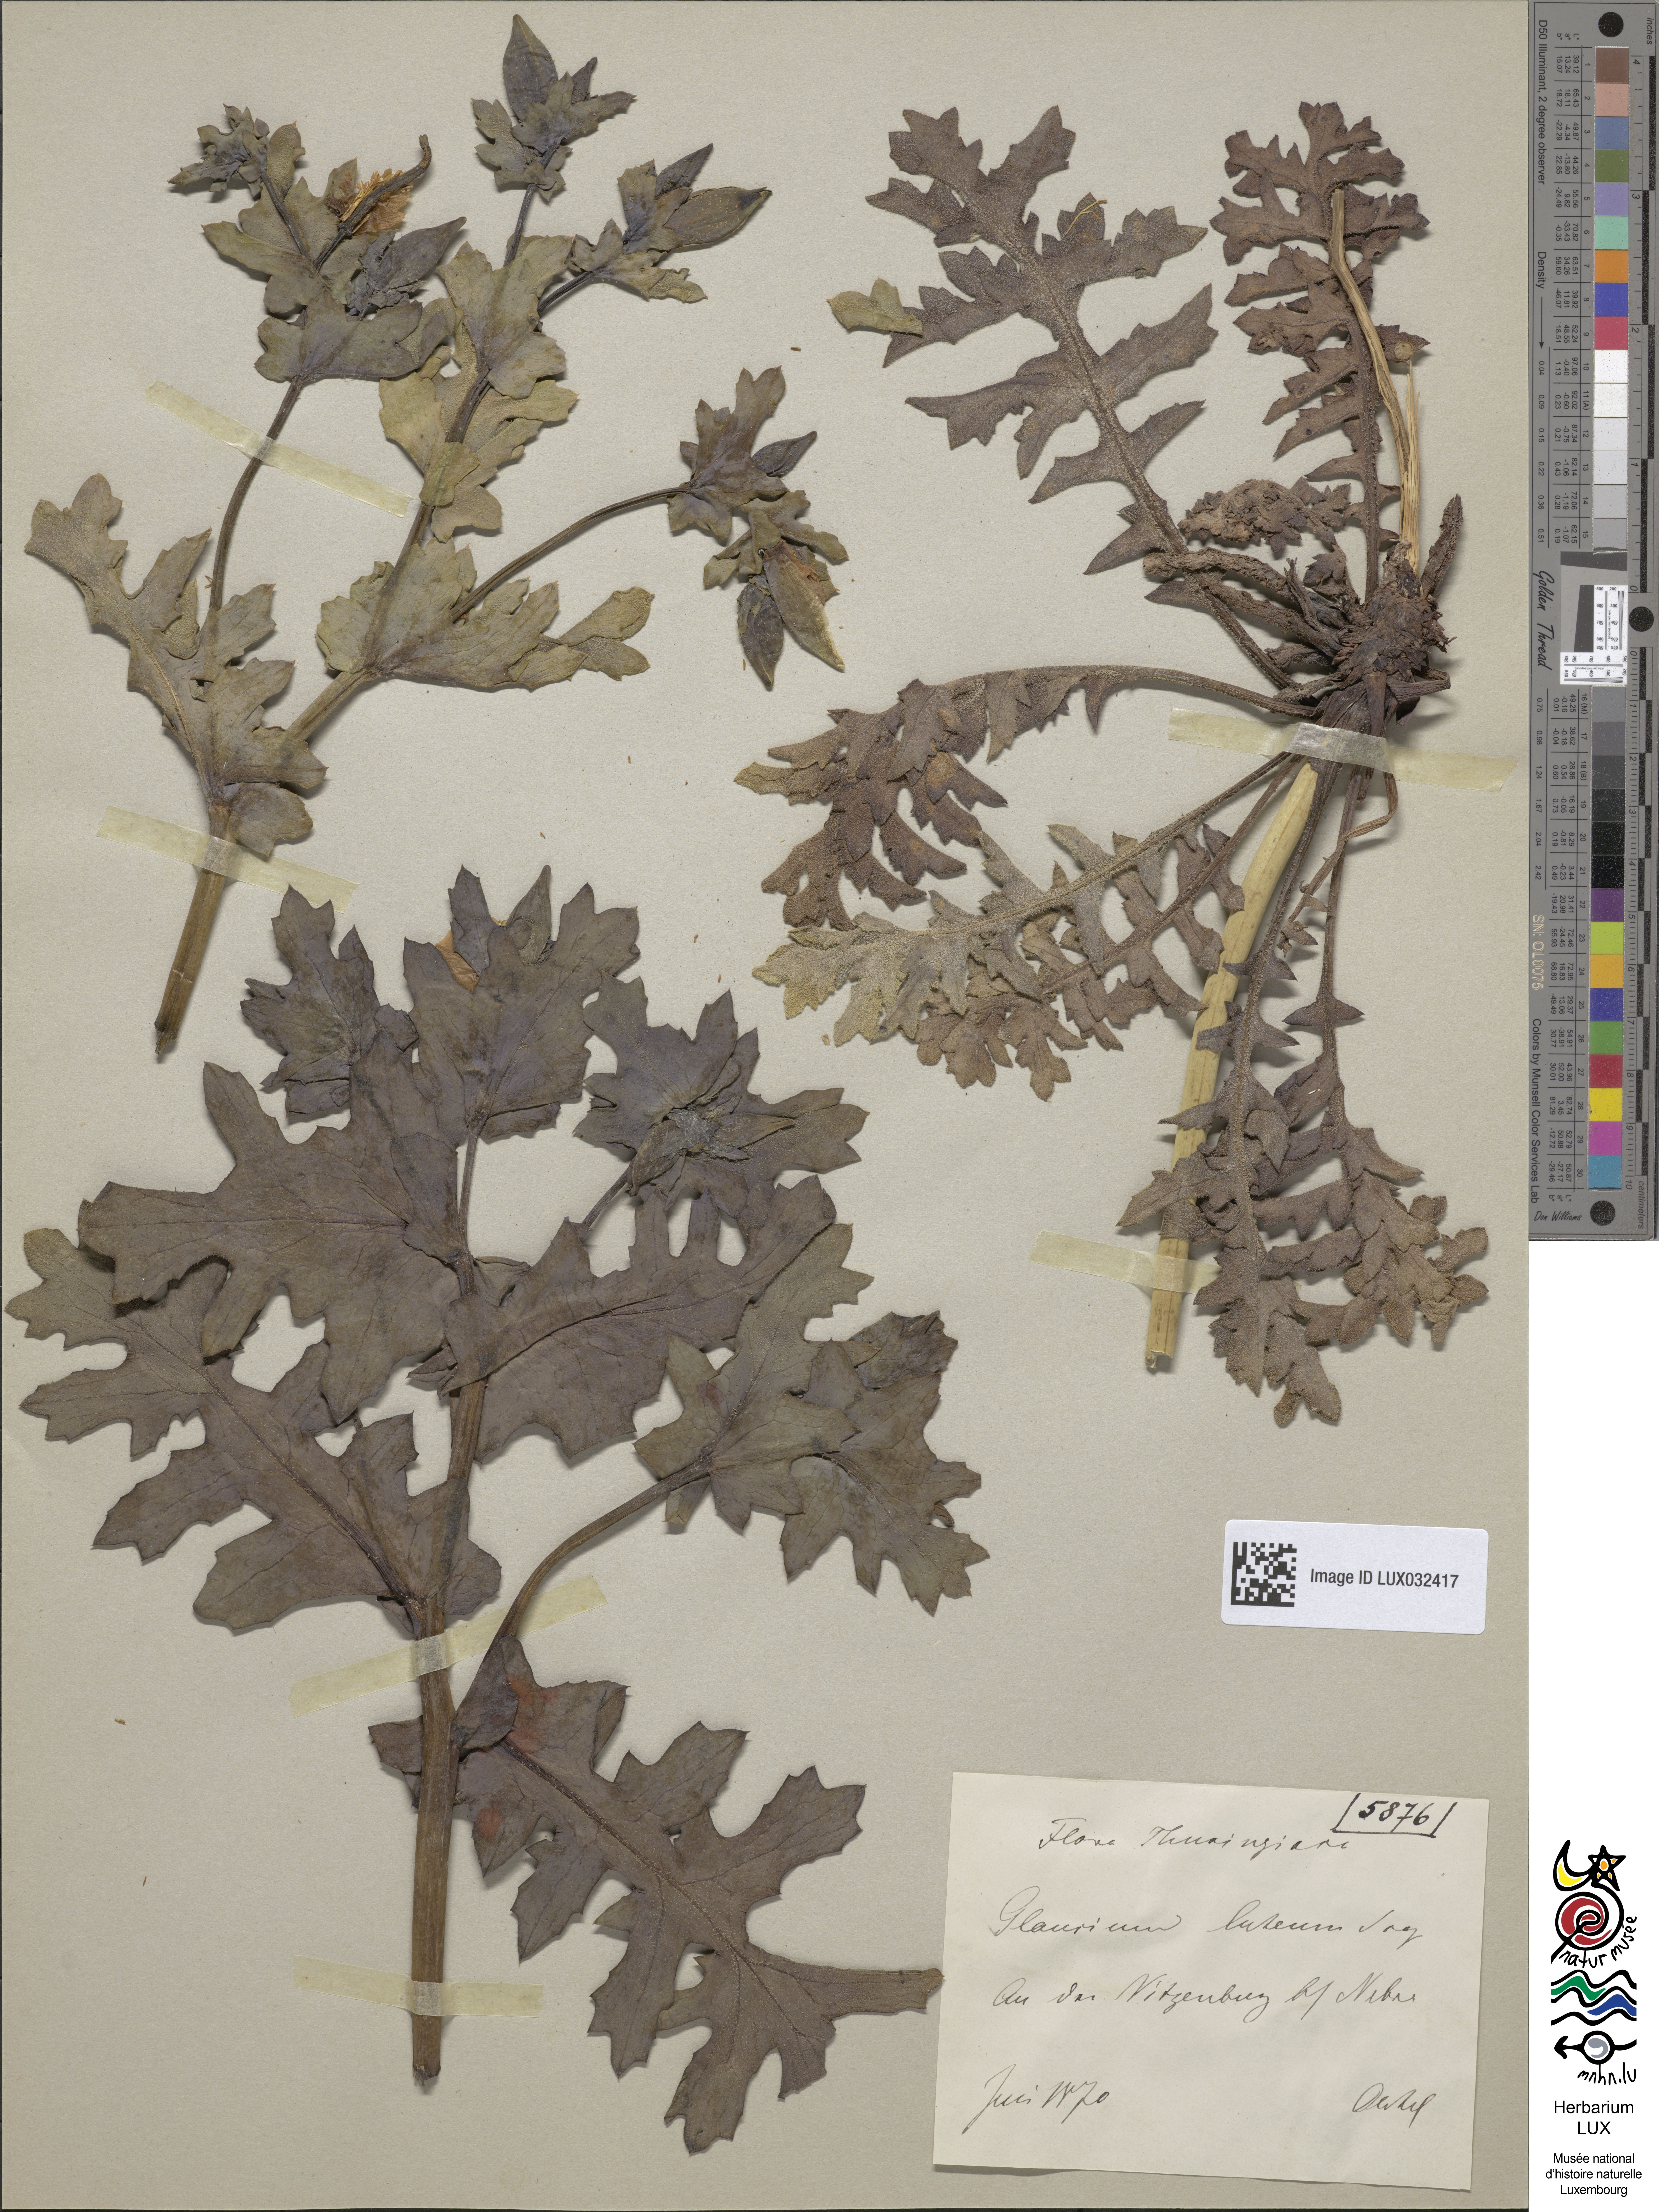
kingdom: Plantae
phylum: Tracheophyta
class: Magnoliopsida
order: Ranunculales
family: Papaveraceae
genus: Glaucium
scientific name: Glaucium flavum
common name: Yellow horned-poppy
